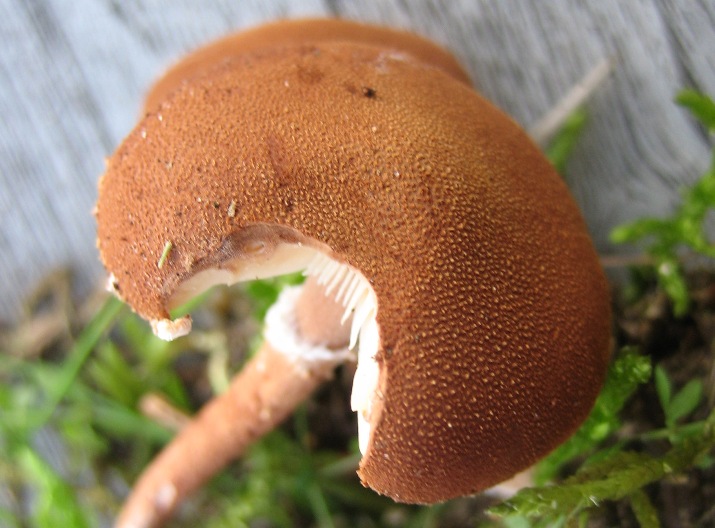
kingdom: Fungi
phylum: Basidiomycota
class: Agaricomycetes
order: Agaricales
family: Agaricaceae
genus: Cystodermella
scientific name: Cystodermella granulosa
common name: kliddet grynhat
